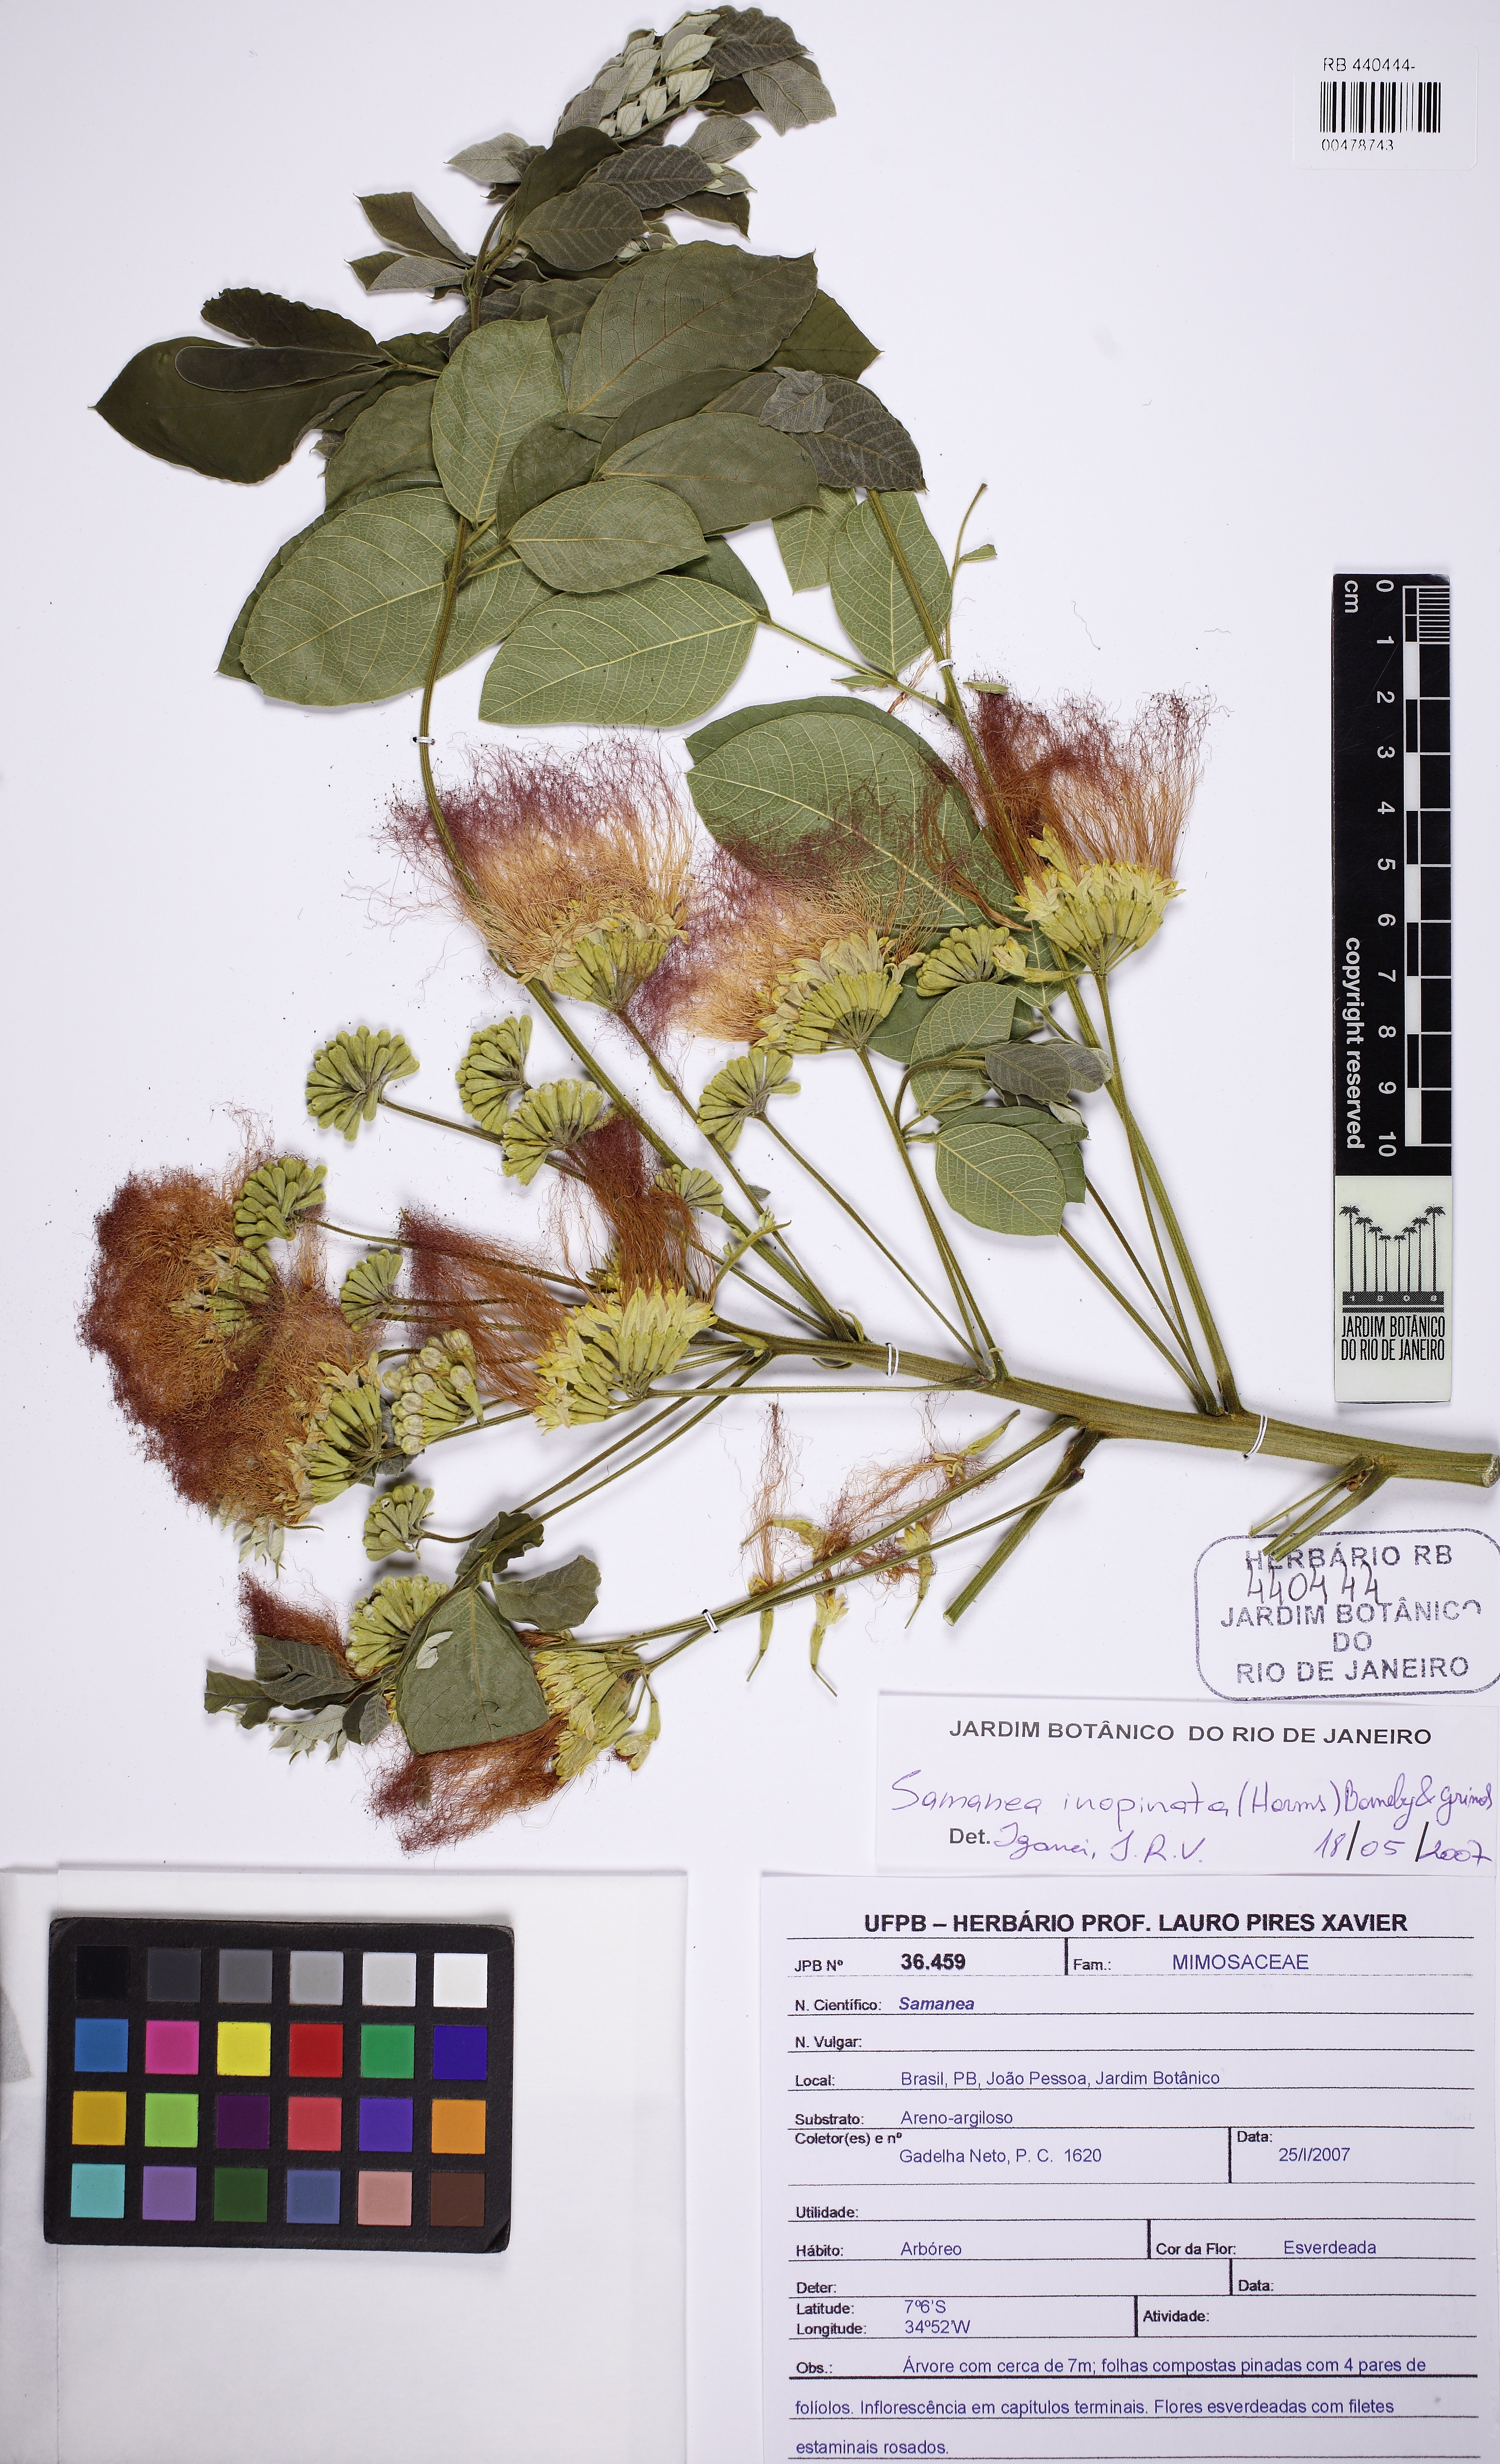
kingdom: Plantae
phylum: Tracheophyta
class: Magnoliopsida
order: Fabales
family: Fabaceae
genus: Samanea
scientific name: Samanea inopinata
